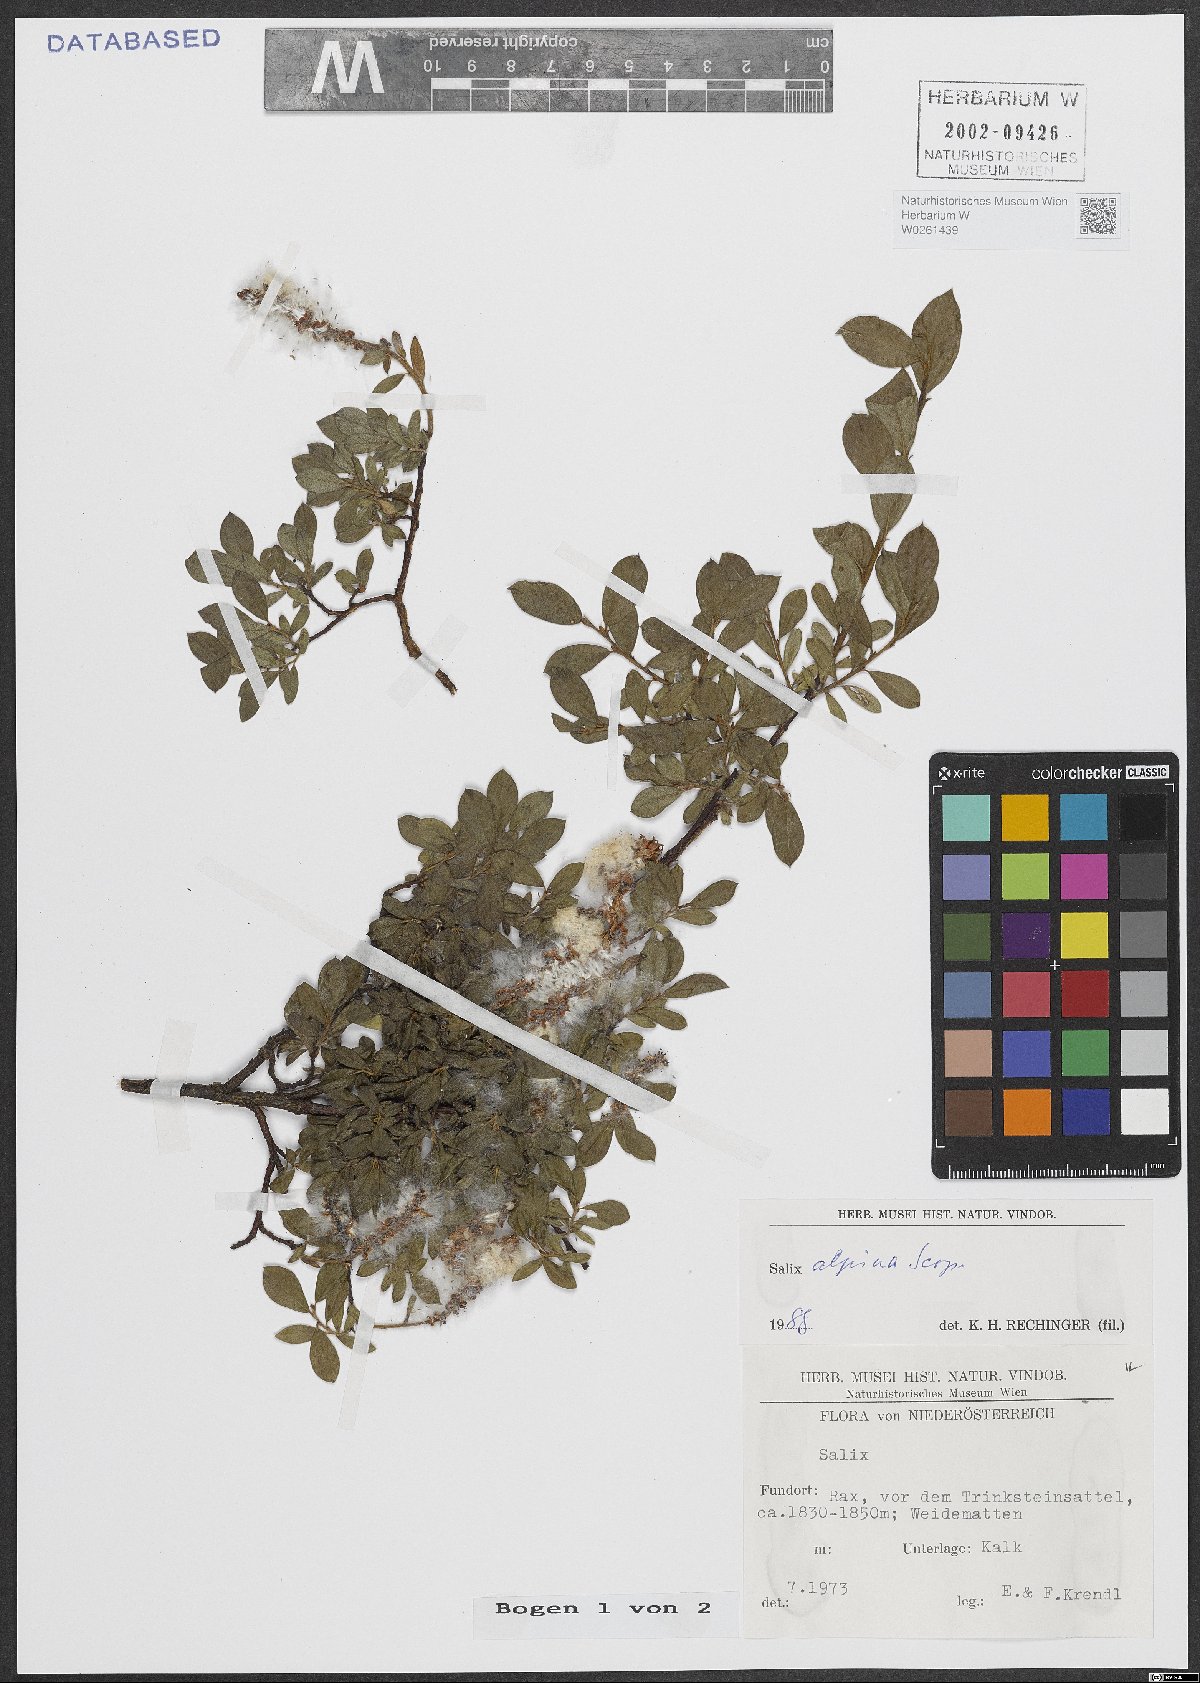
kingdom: Plantae
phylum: Tracheophyta
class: Magnoliopsida
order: Malpighiales
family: Salicaceae
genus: Salix
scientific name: Salix alpina
